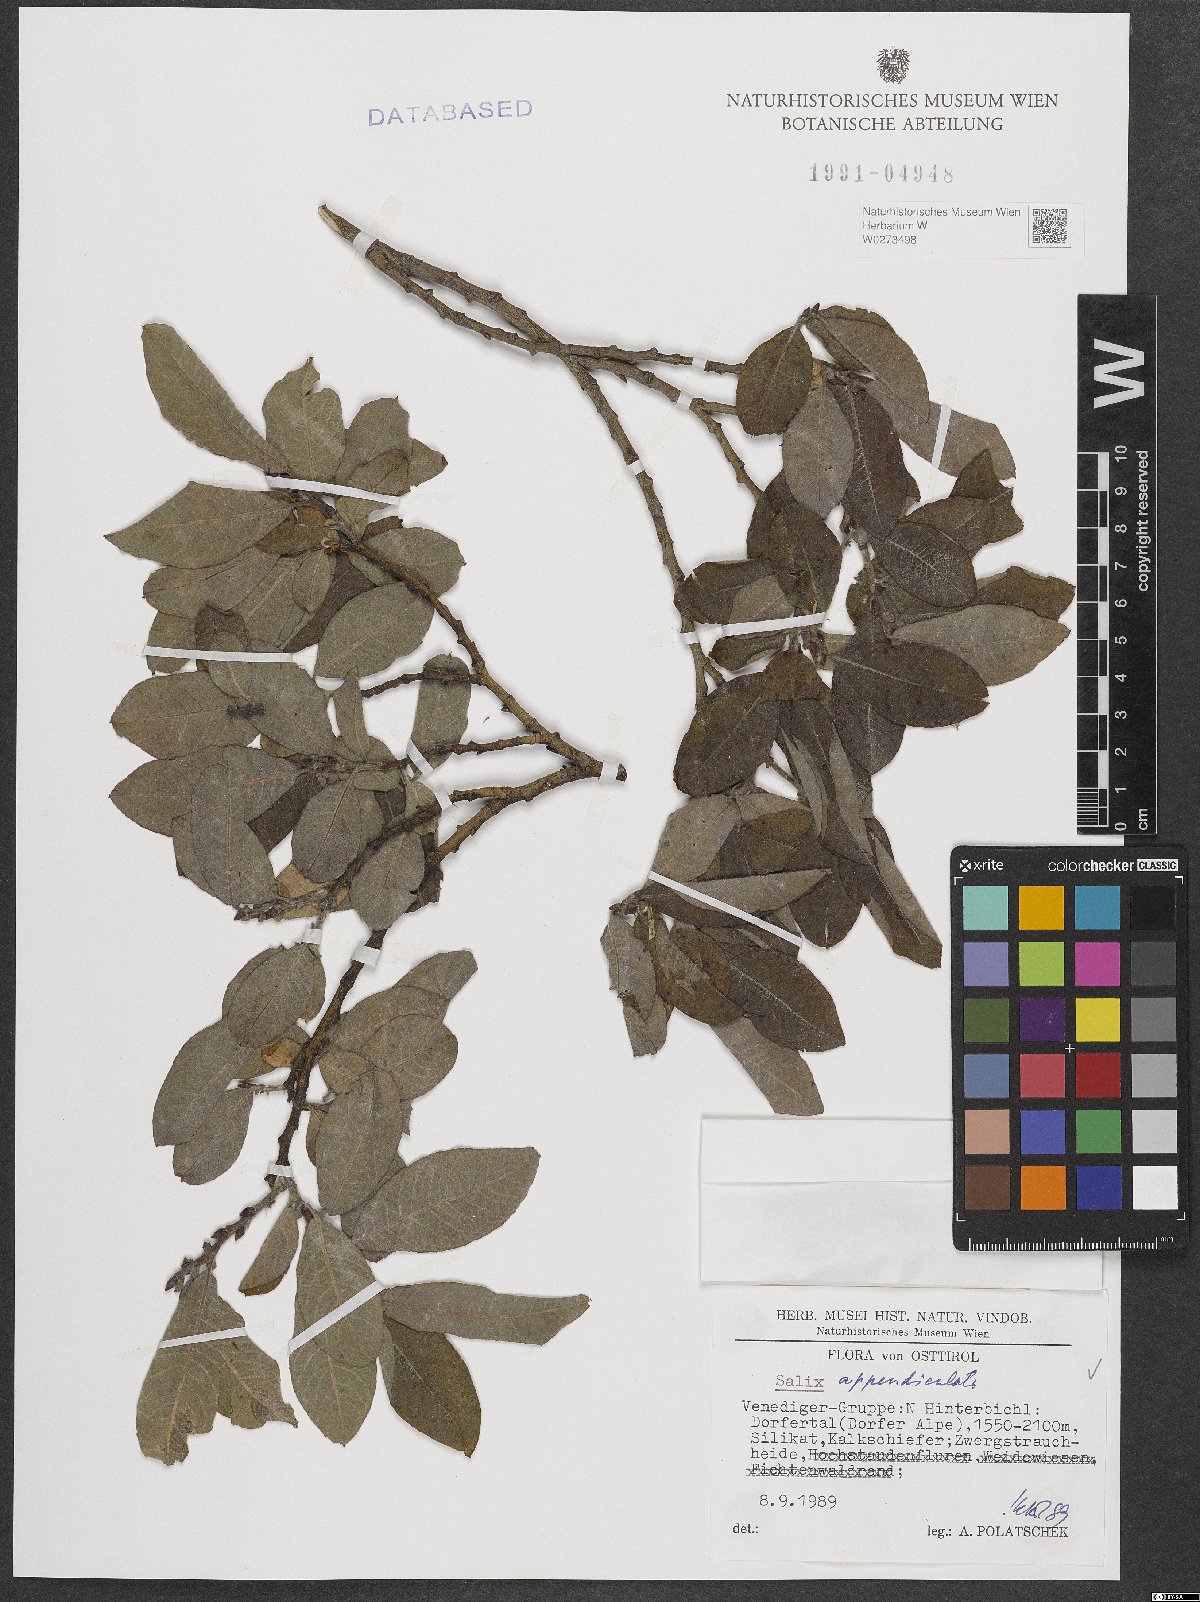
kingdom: Plantae
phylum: Tracheophyta
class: Magnoliopsida
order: Malpighiales
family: Salicaceae
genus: Salix
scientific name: Salix appendiculata
